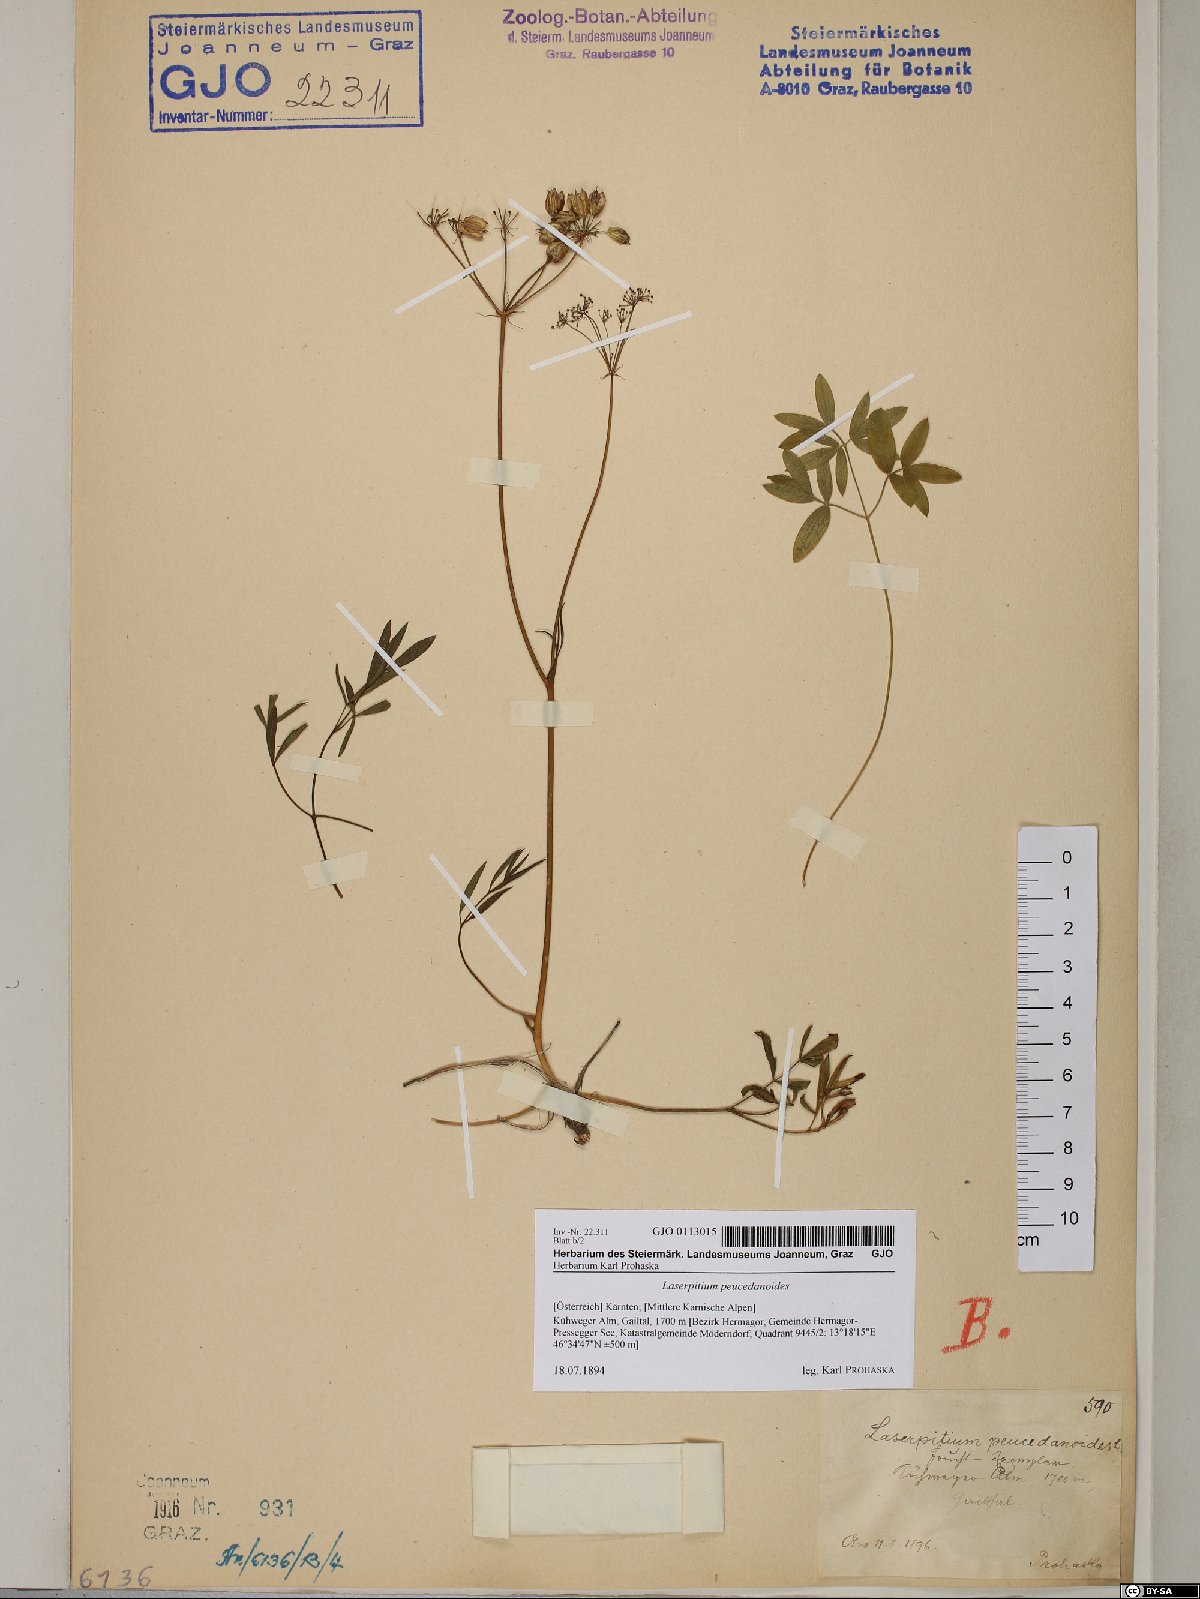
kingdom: Plantae
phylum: Tracheophyta
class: Magnoliopsida
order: Apiales
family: Apiaceae
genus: Laserpitium
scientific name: Laserpitium peucedanoides
